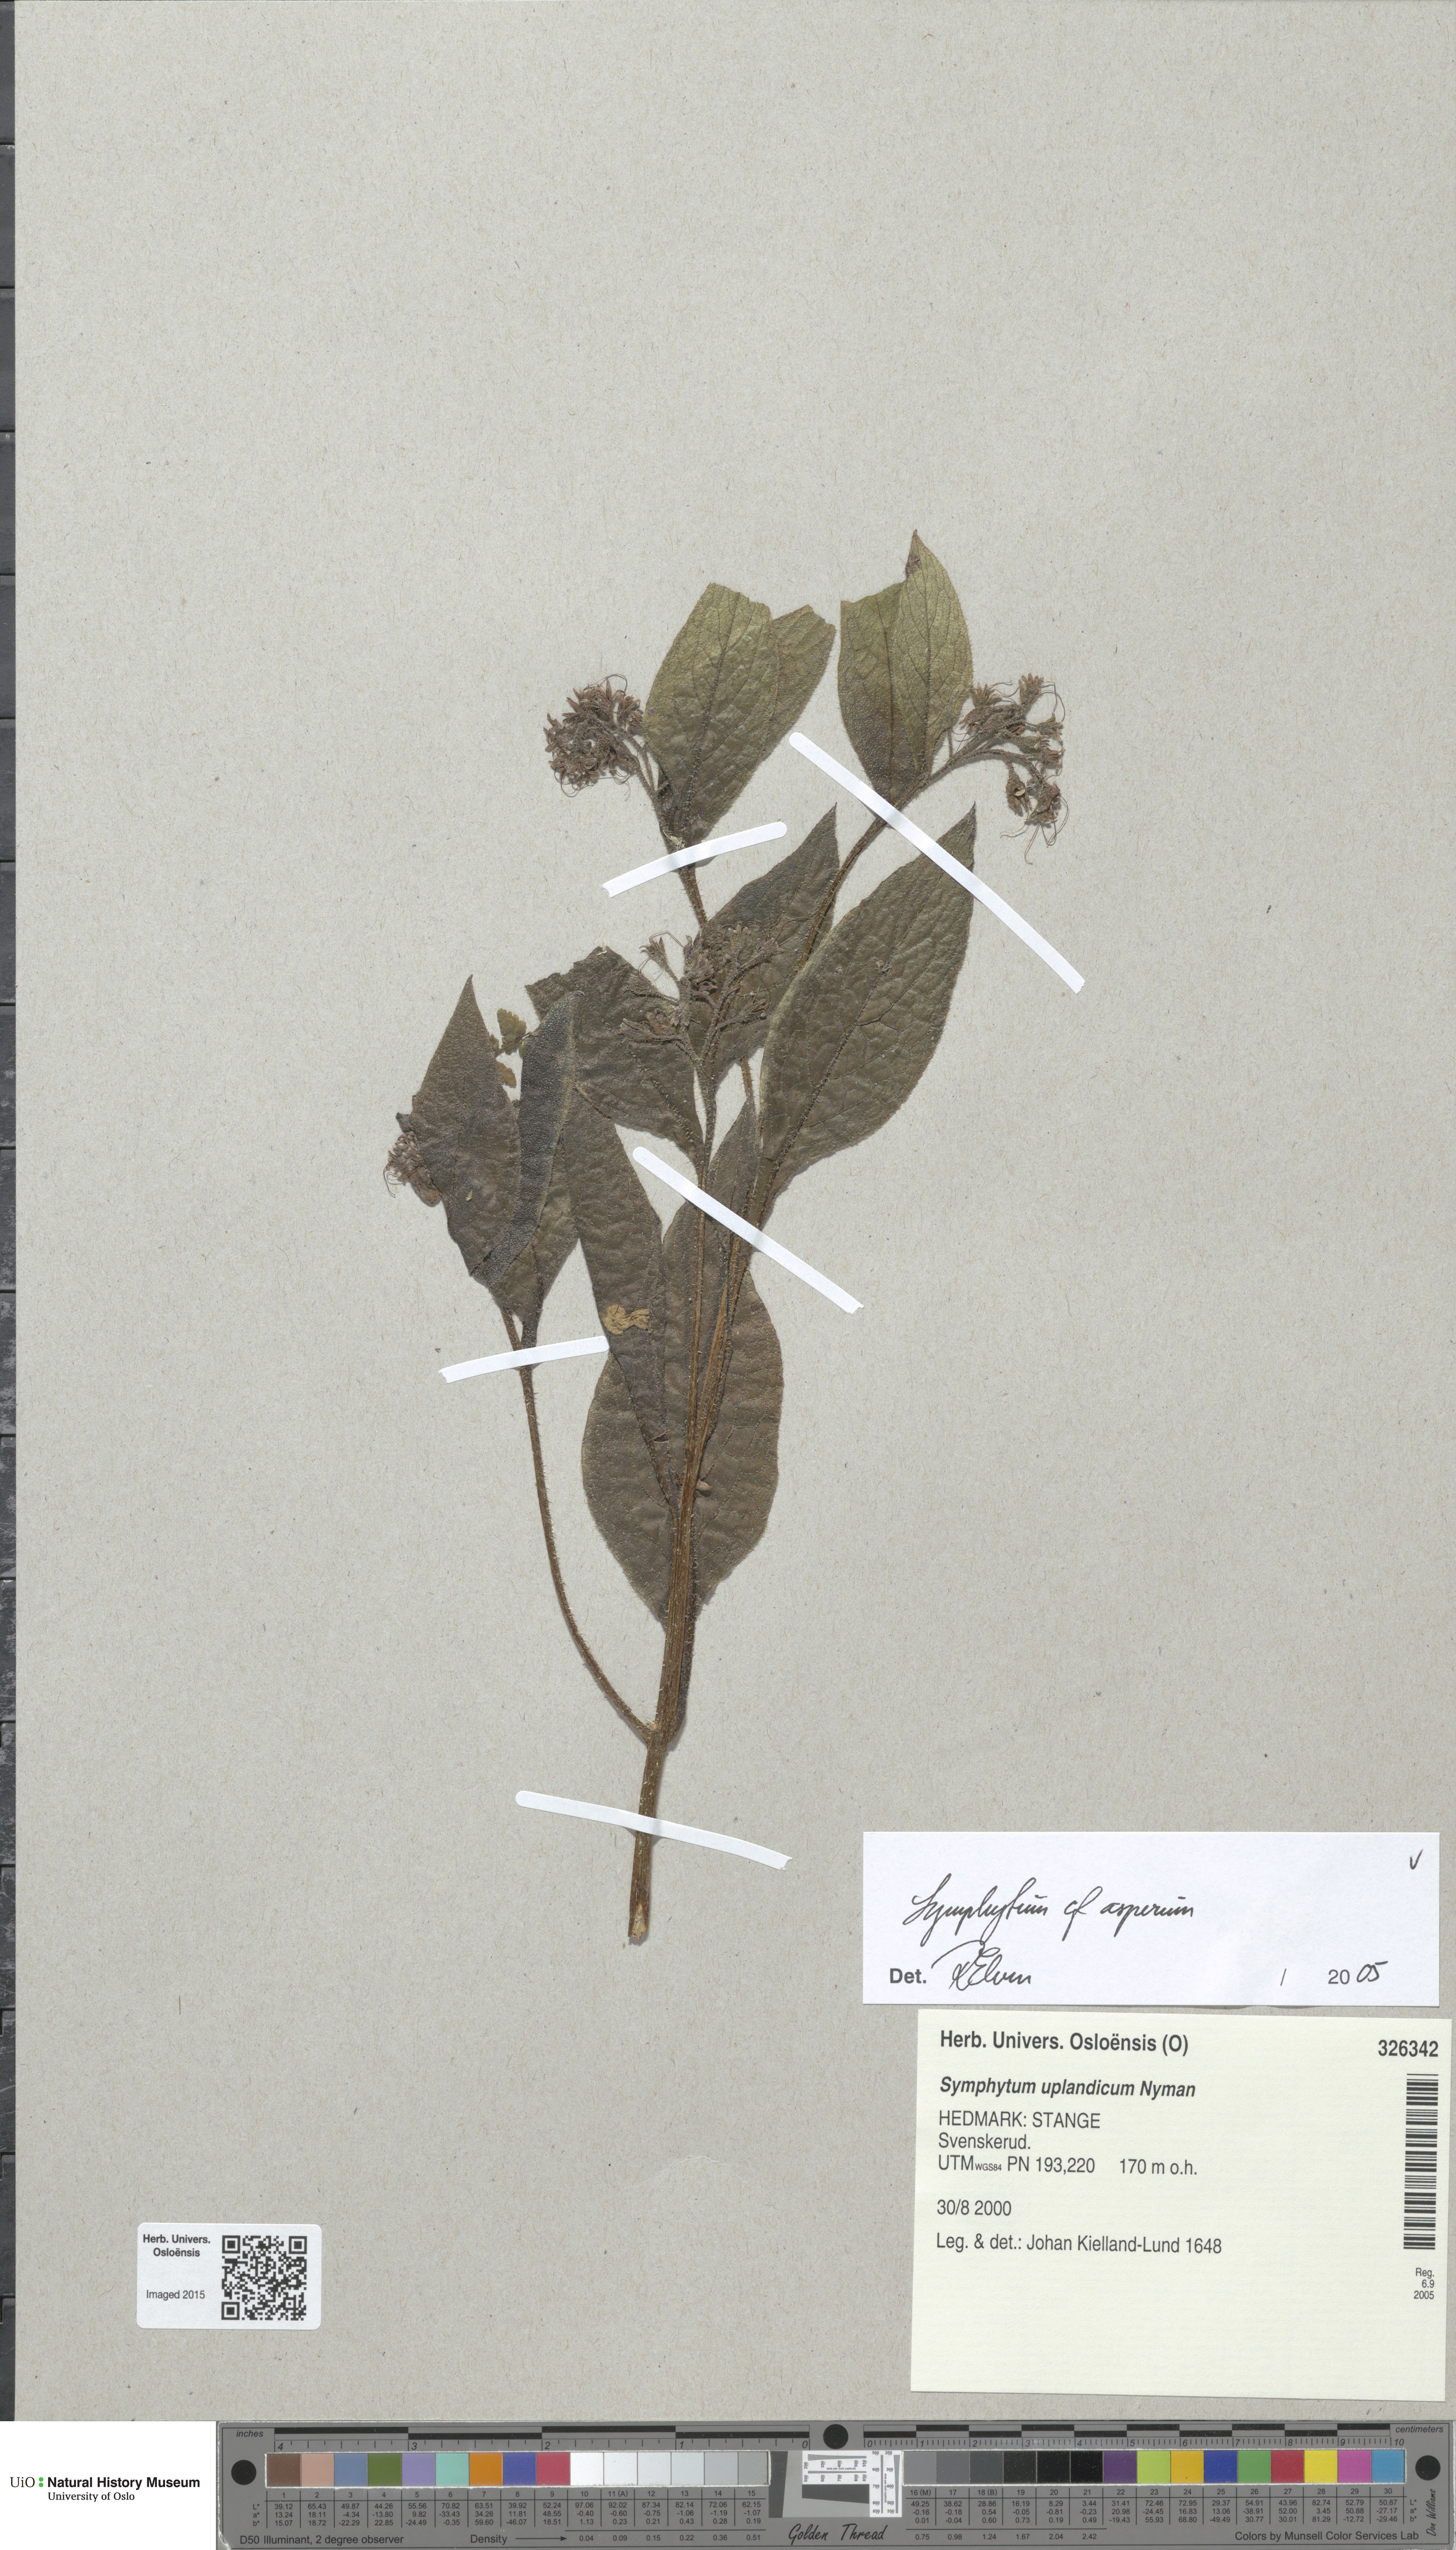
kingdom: Plantae
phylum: Tracheophyta
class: Magnoliopsida
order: Boraginales
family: Boraginaceae
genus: Symphytum
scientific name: Symphytum asperum
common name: Prickly comfrey
